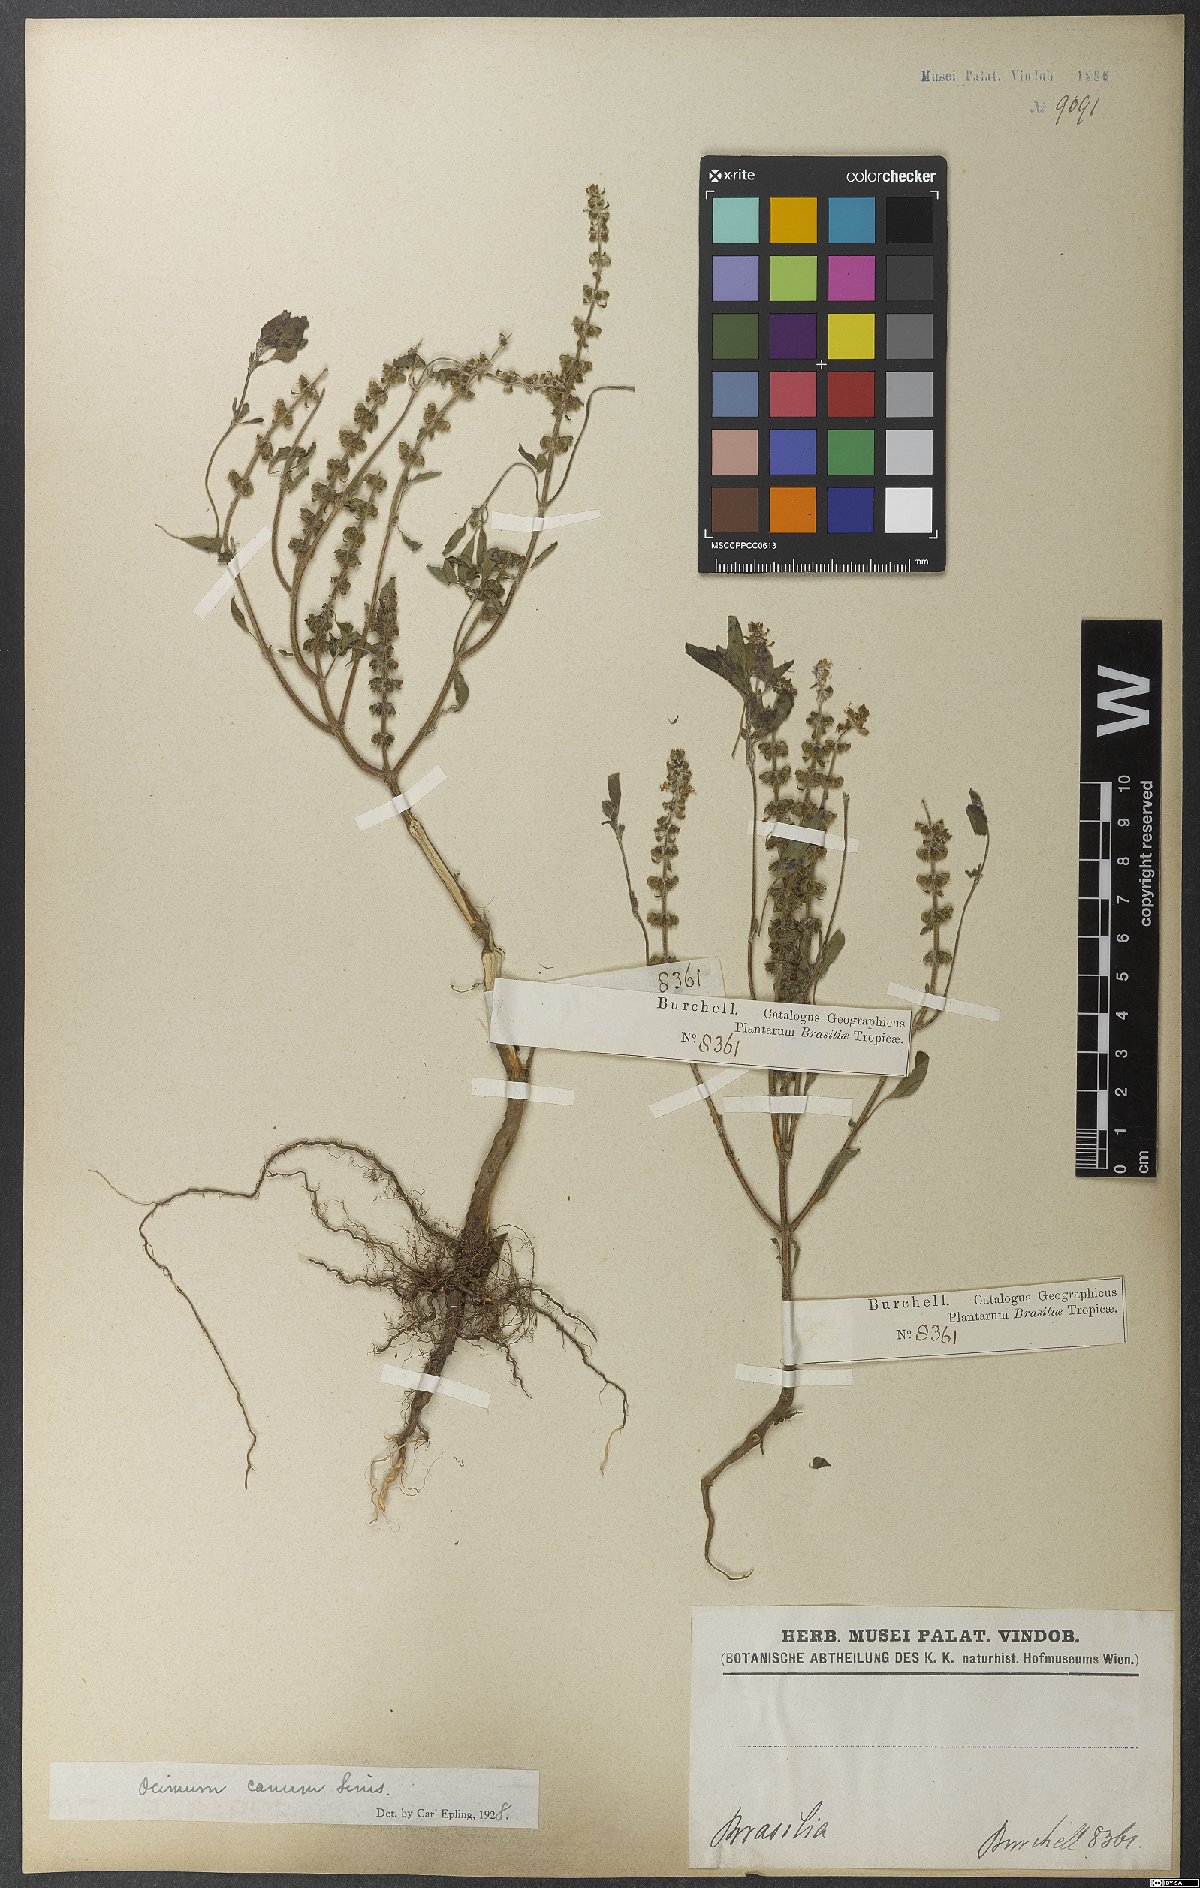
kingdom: Plantae
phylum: Tracheophyta
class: Magnoliopsida
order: Lamiales
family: Lamiaceae
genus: Ocimum
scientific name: Ocimum americanum
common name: American basil
